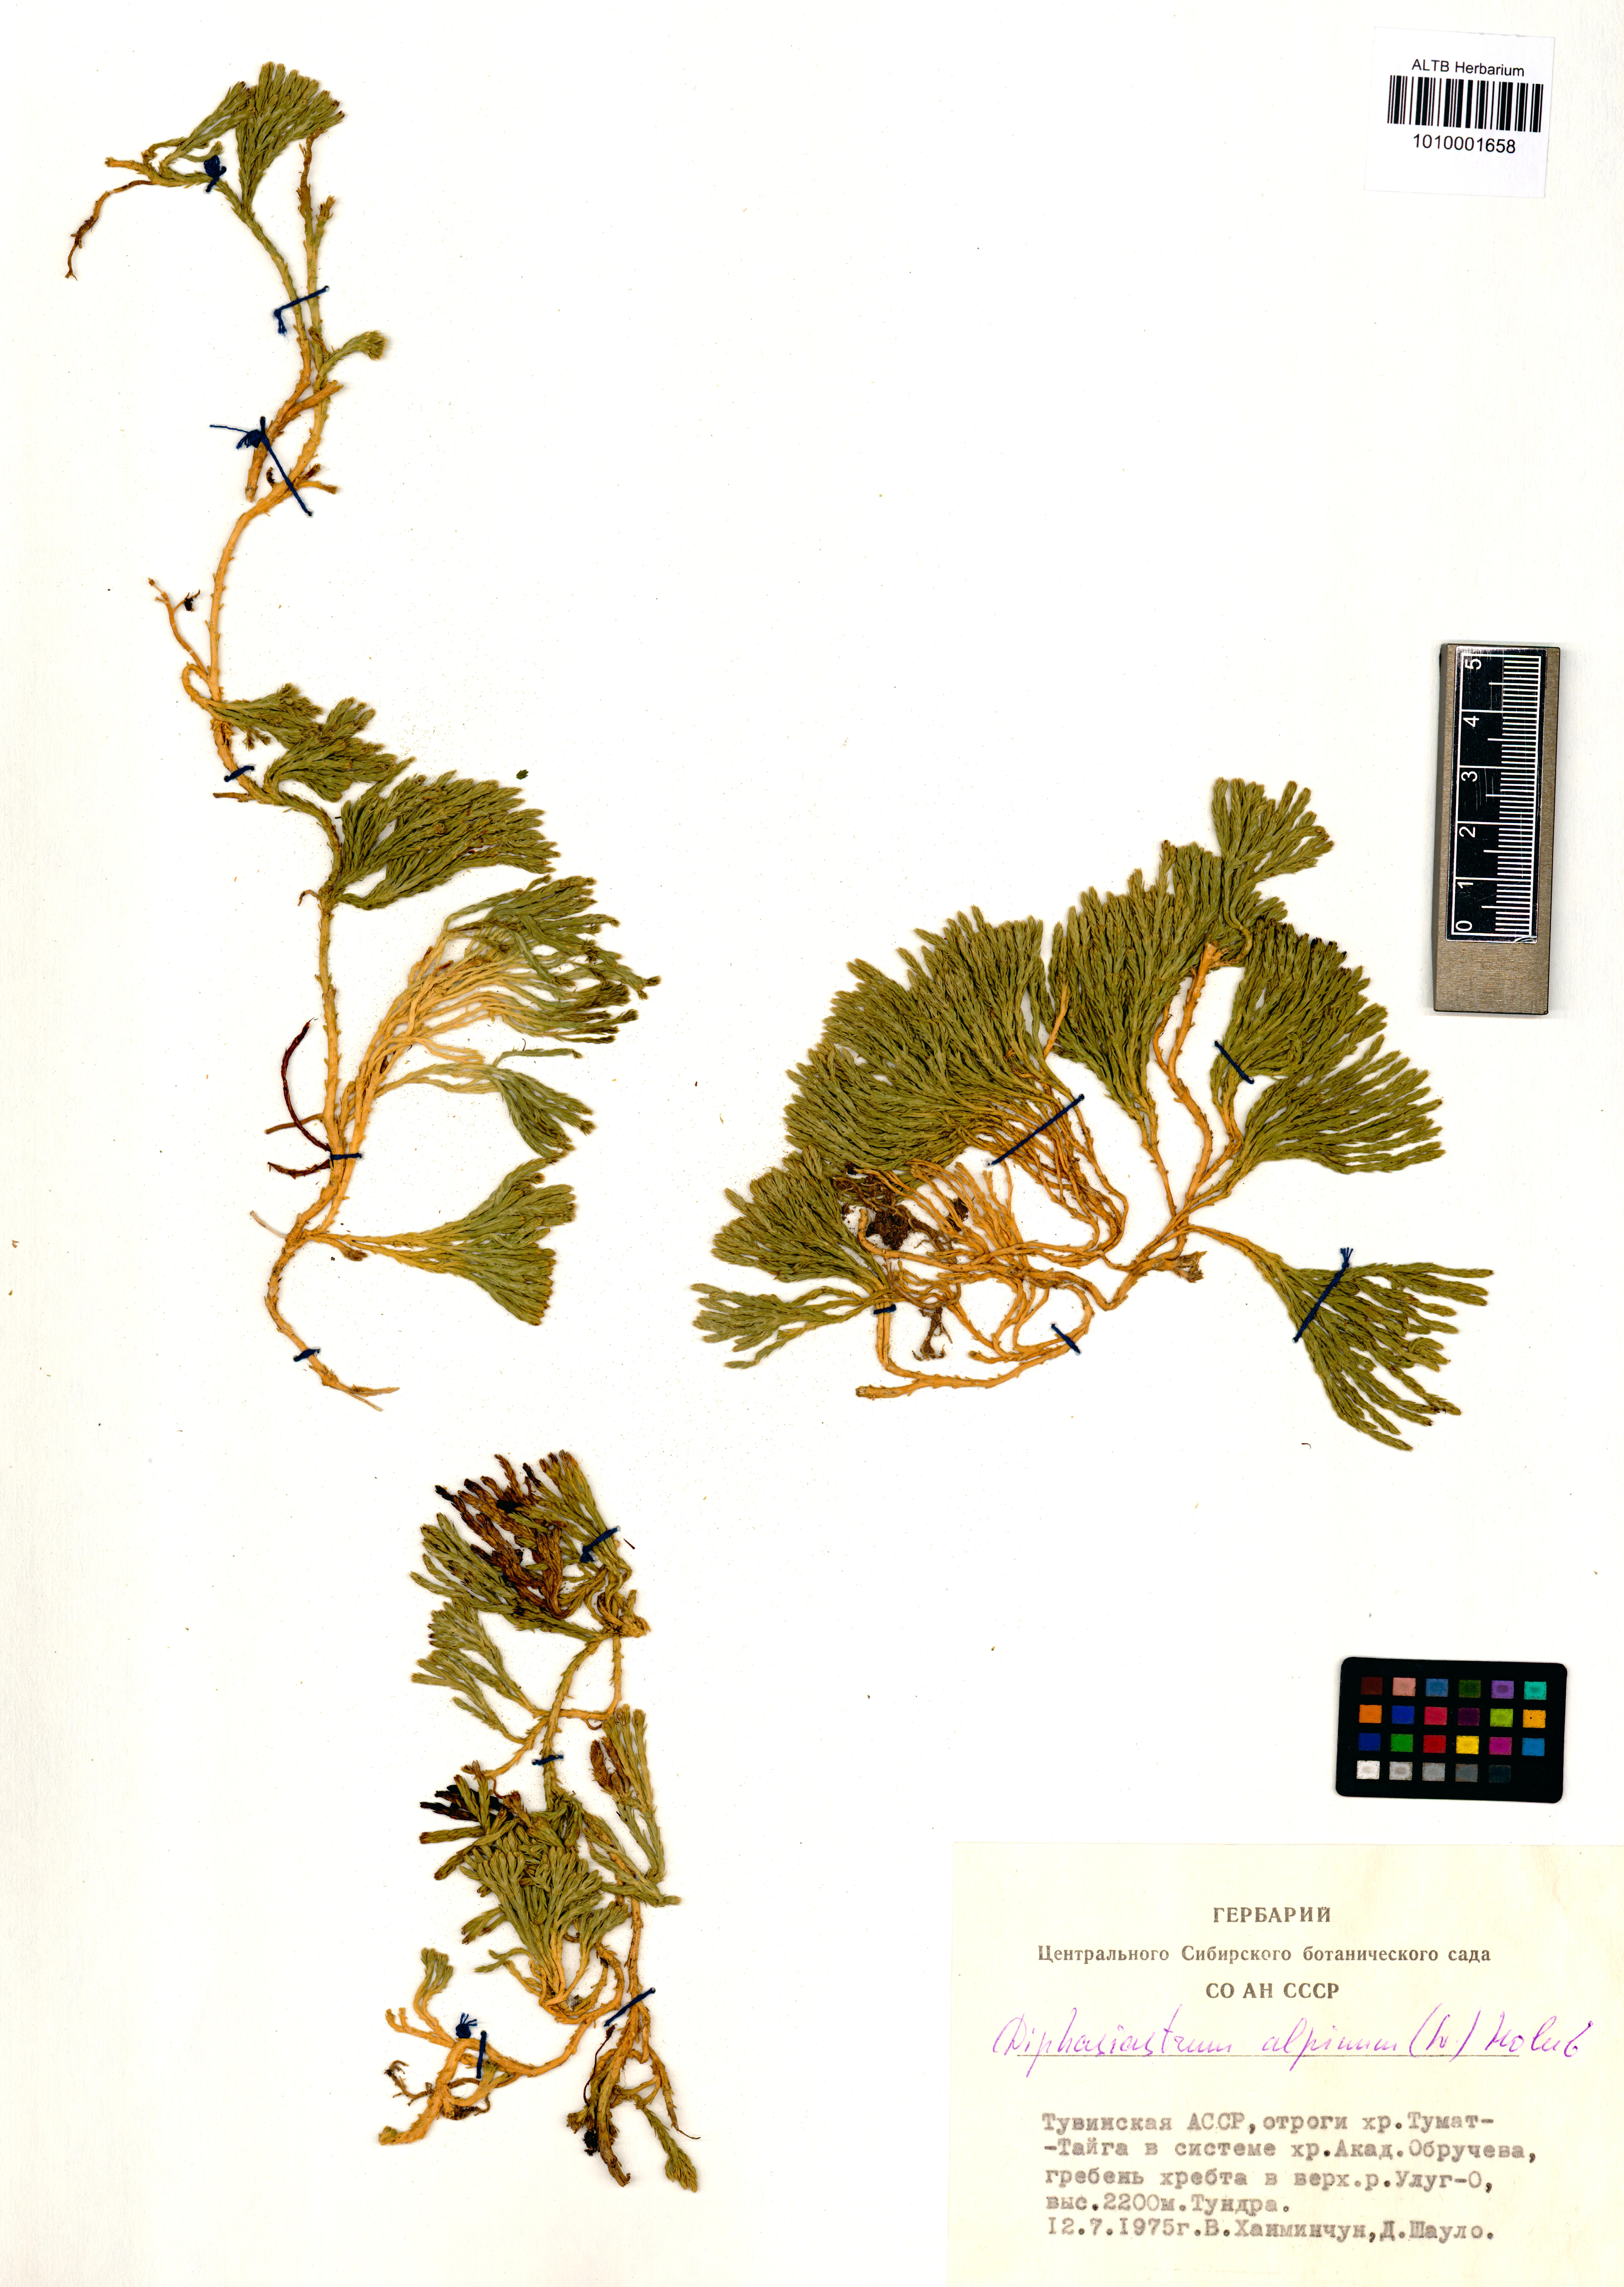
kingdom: Plantae
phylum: Tracheophyta
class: Lycopodiopsida
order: Lycopodiales
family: Lycopodiaceae
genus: Diphasiastrum
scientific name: Diphasiastrum alpinum
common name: Alpine clubmoss
